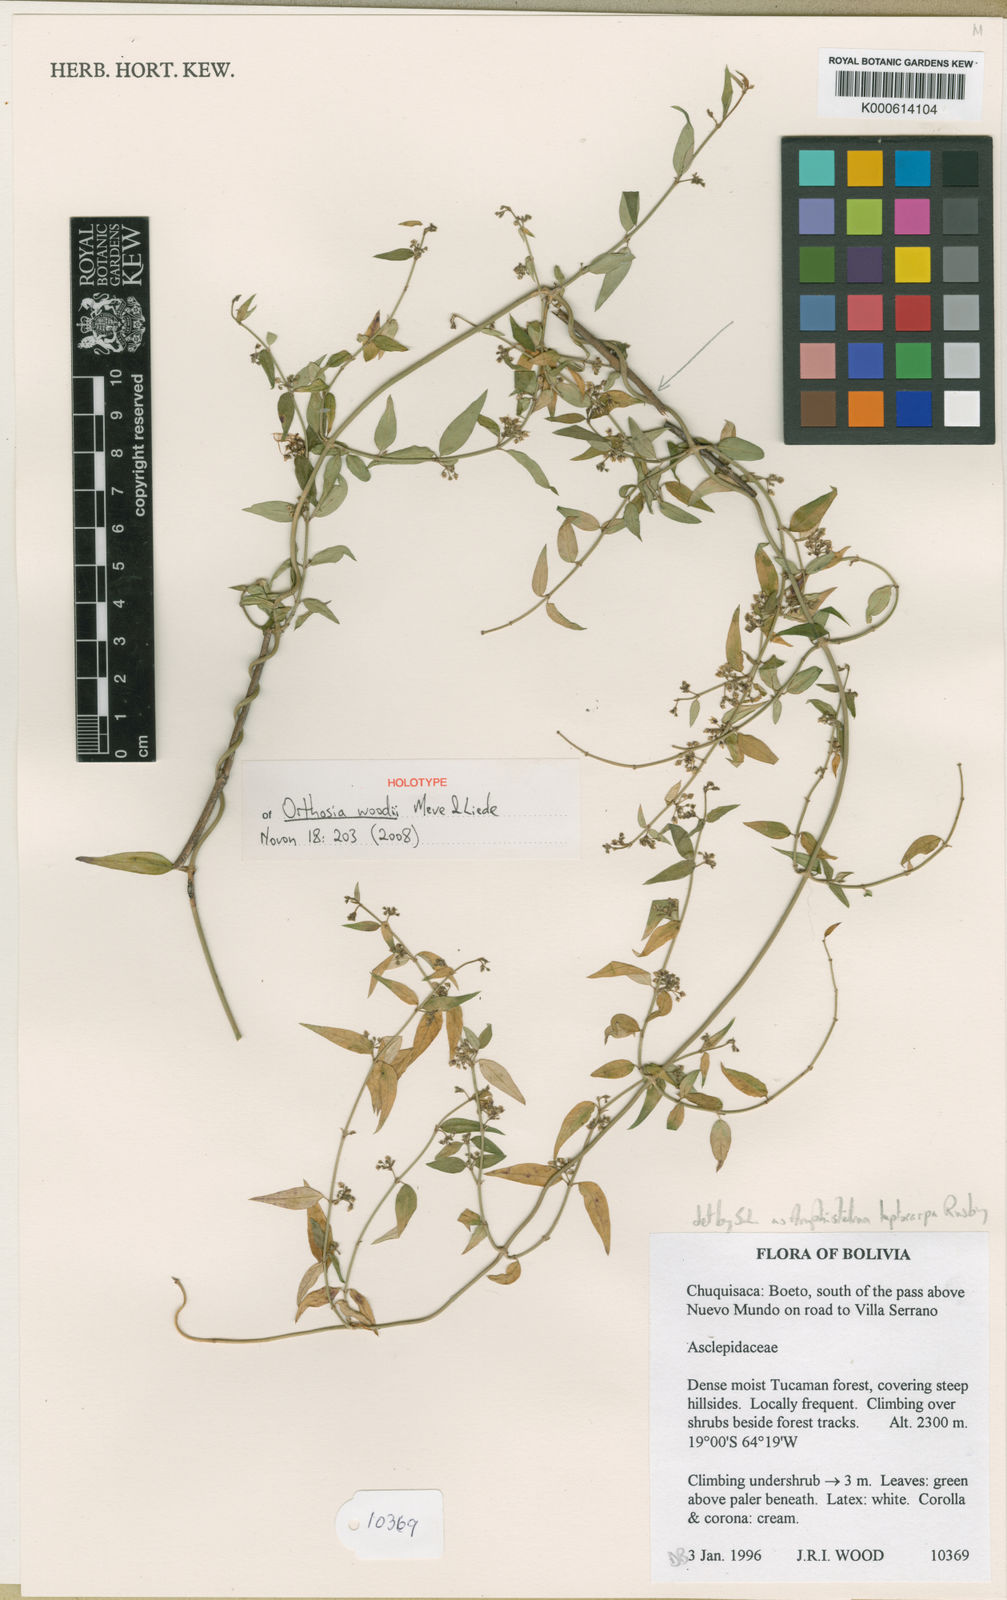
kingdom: Plantae
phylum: Tracheophyta
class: Magnoliopsida
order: Gentianales
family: Apocynaceae
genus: Orthosia
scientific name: Orthosia woodii
